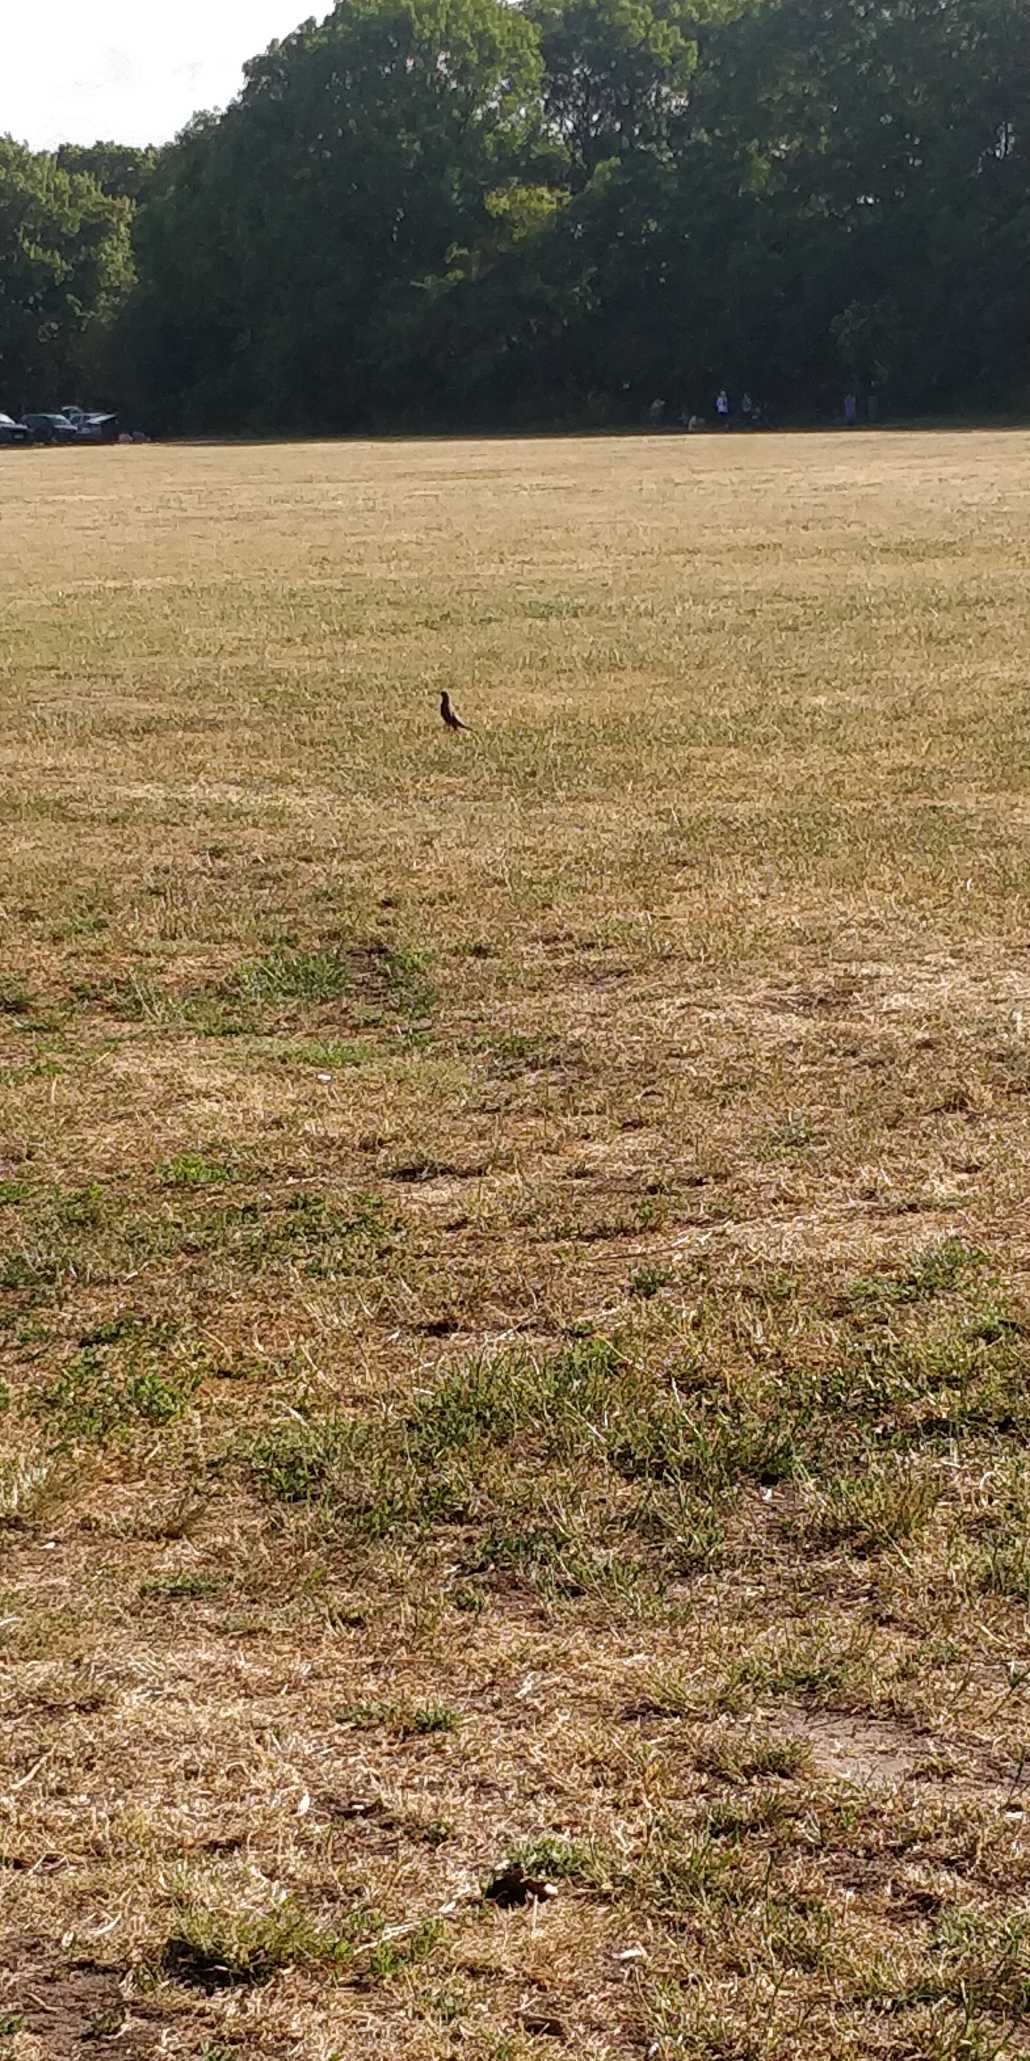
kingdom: Animalia
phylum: Chordata
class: Aves
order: Passeriformes
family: Turdidae
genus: Turdus
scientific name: Turdus pilaris
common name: Sjagger
